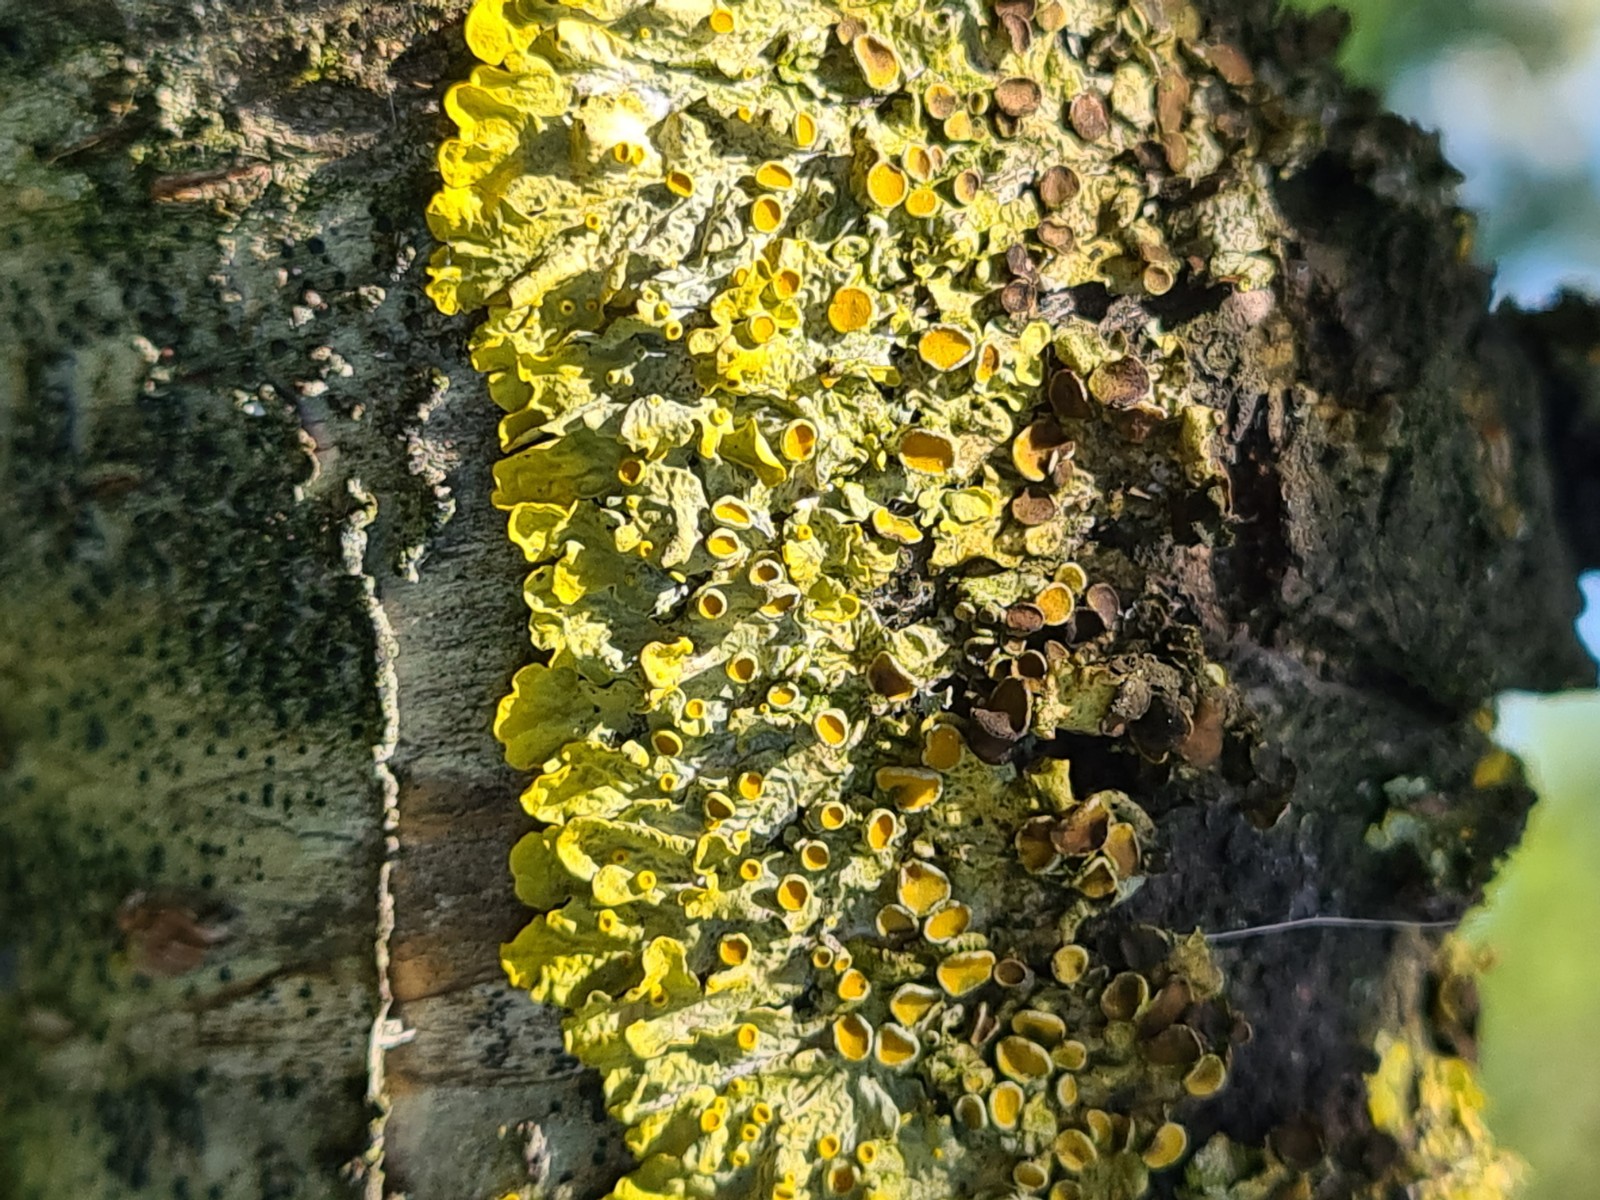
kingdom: Fungi
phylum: Ascomycota
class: Lecanoromycetes
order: Teloschistales
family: Teloschistaceae
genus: Xanthoria
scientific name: Xanthoria parietina
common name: almindelig væggelav
